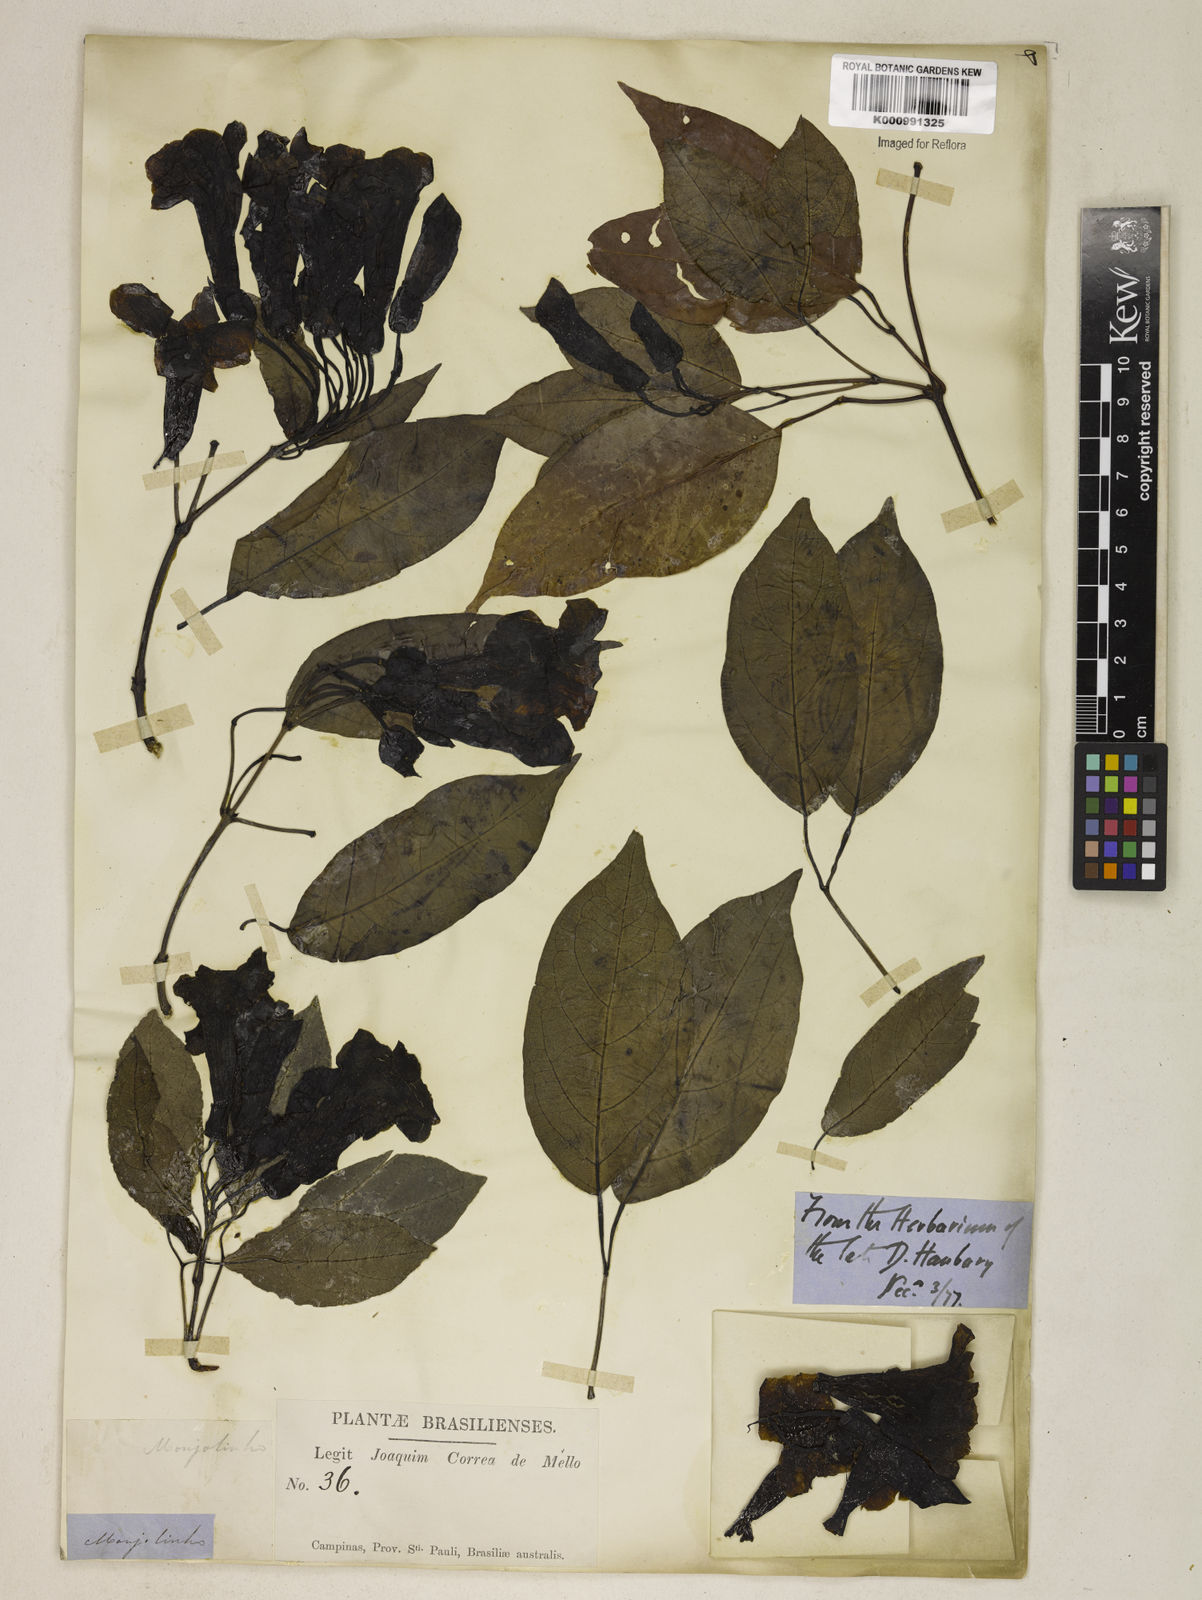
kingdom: Plantae
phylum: Tracheophyta
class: Magnoliopsida
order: Lamiales
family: Bignoniaceae
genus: Dolichandra
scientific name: Dolichandra quadrivalvis
